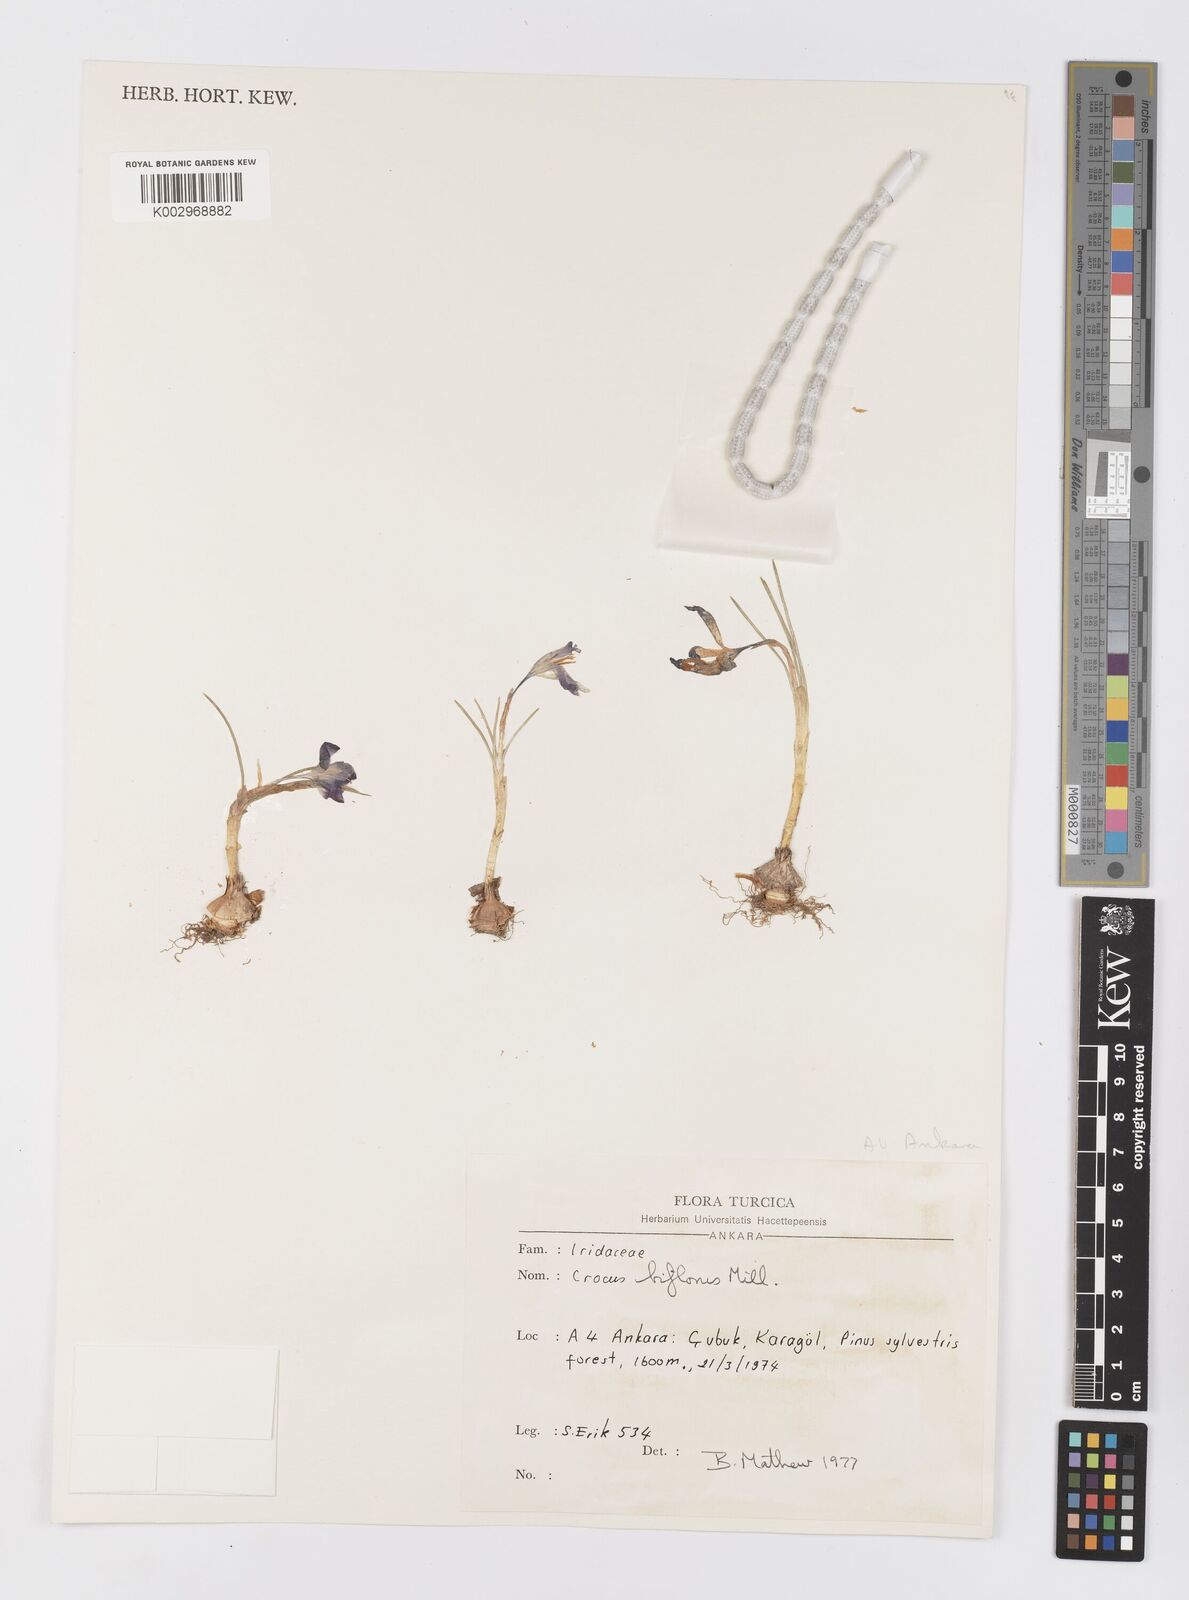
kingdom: Plantae
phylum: Tracheophyta
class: Liliopsida
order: Asparagales
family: Iridaceae
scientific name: Iridaceae
